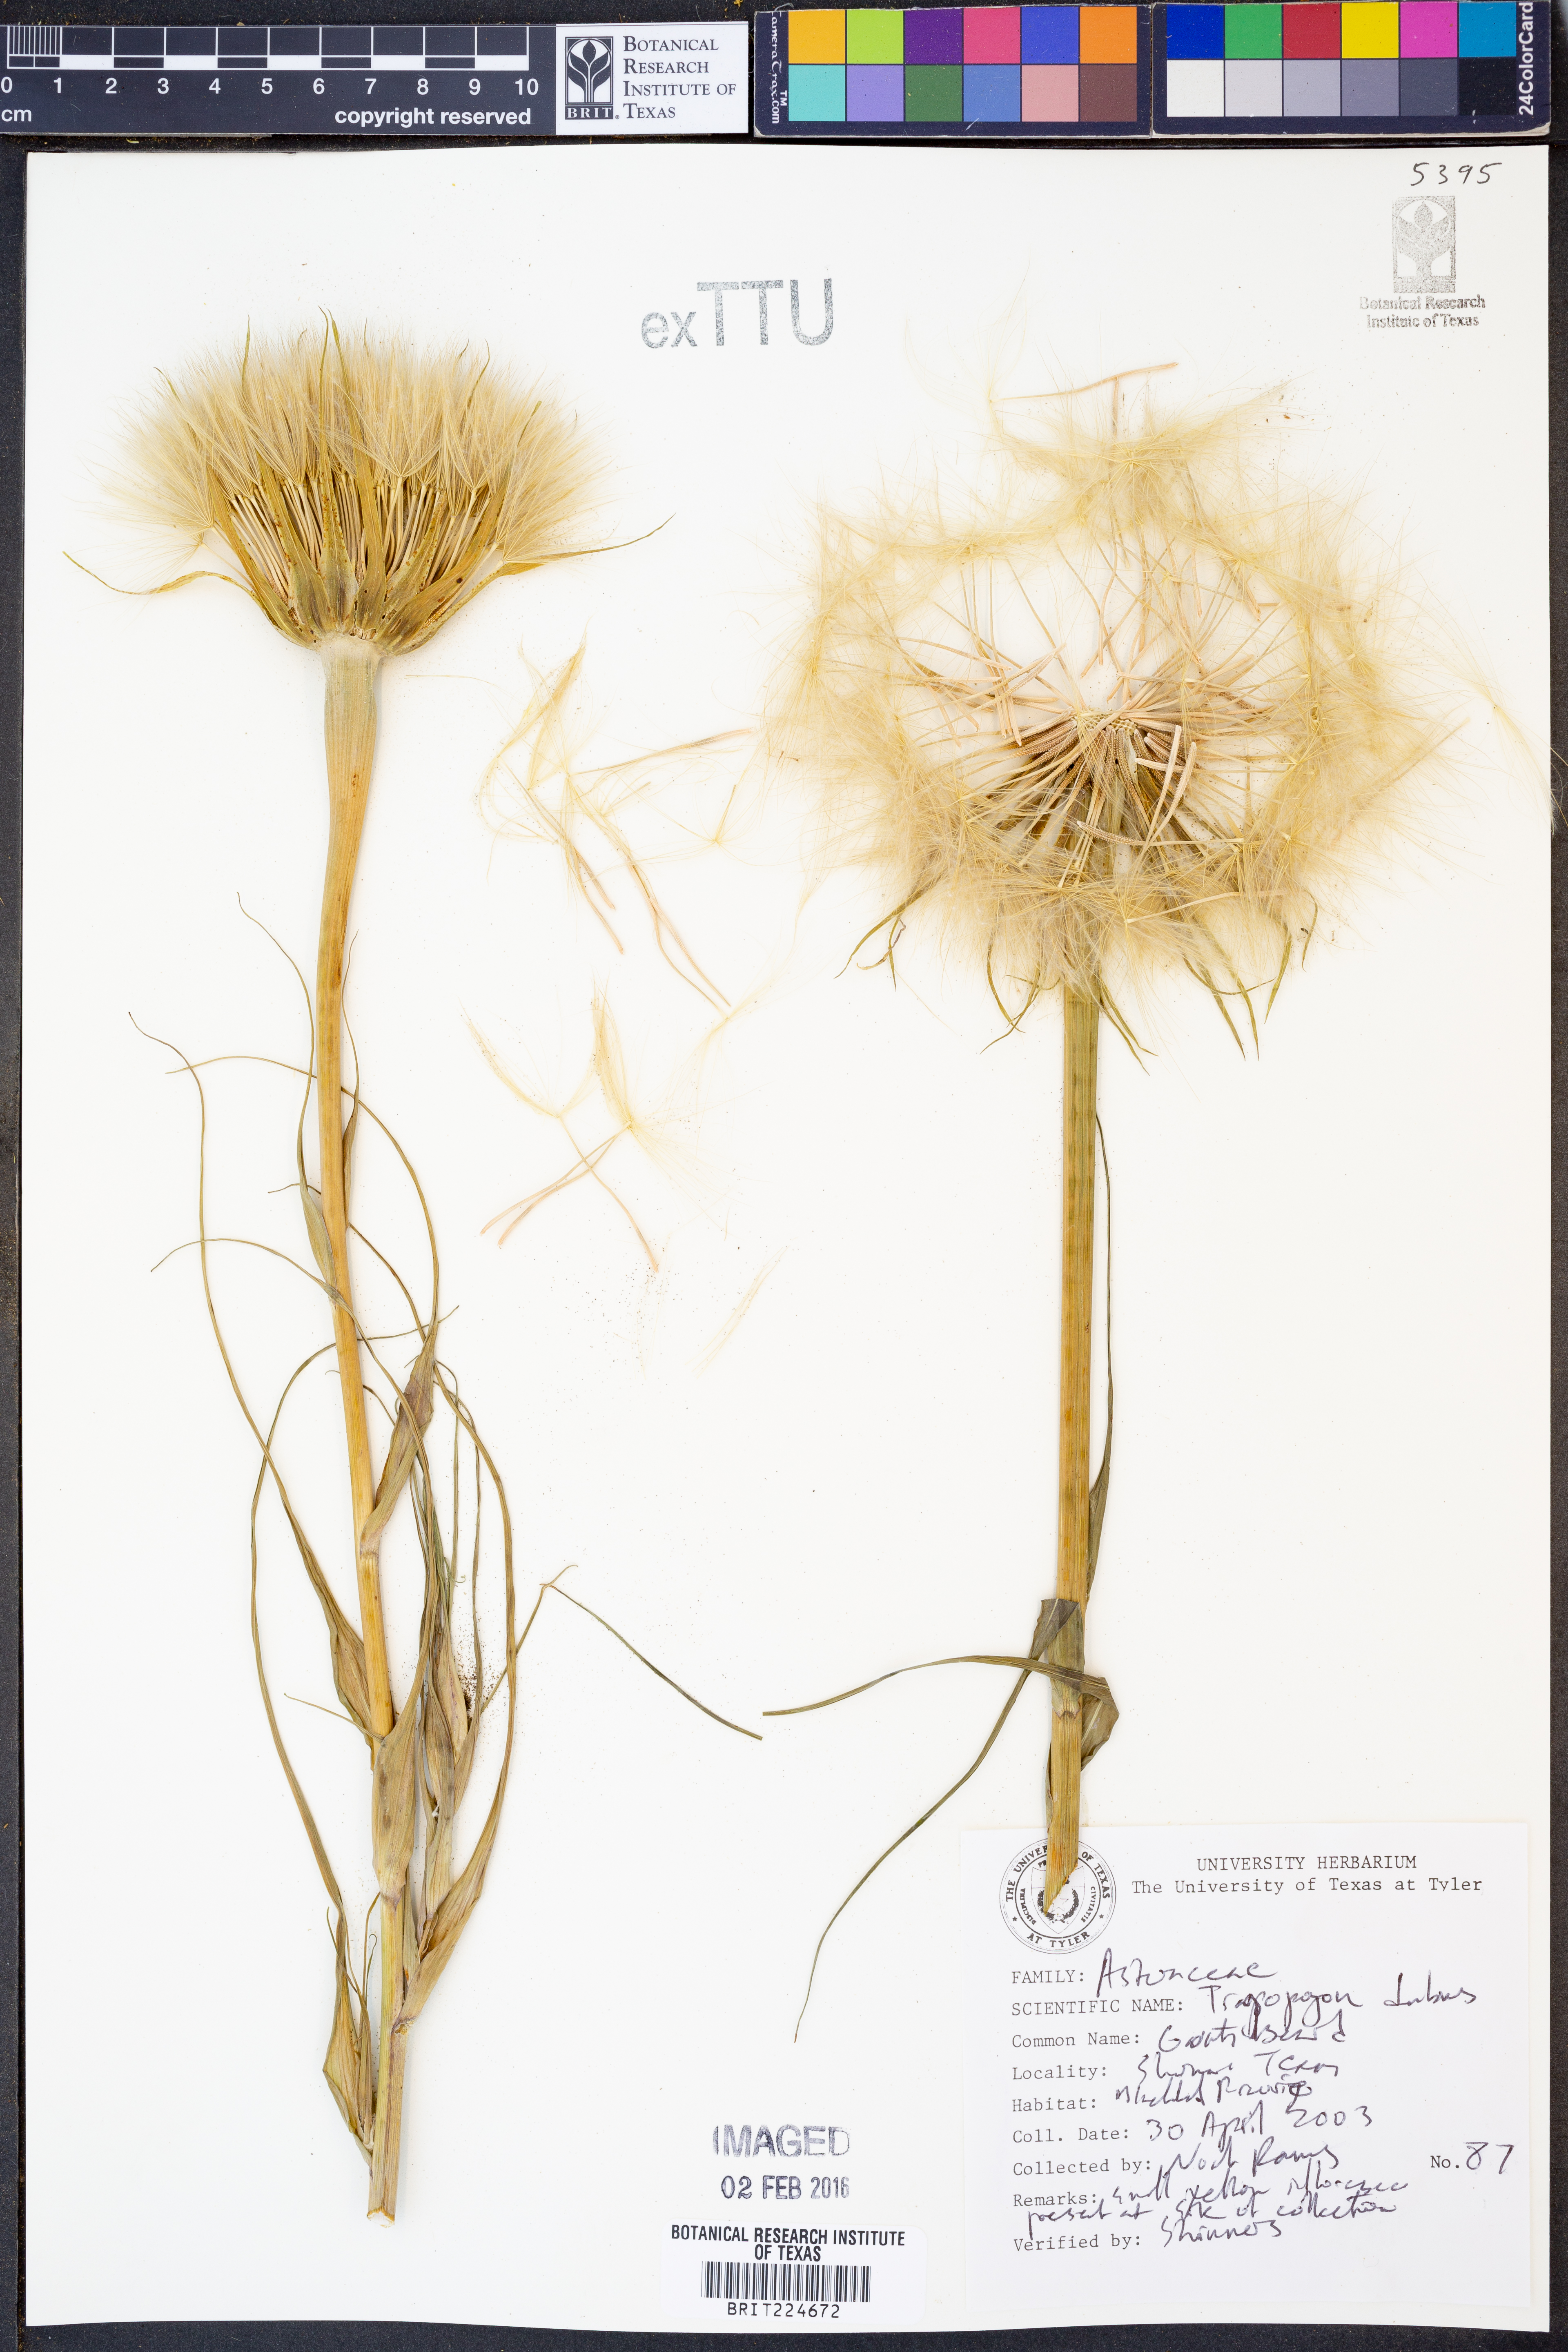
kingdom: Plantae
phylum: Tracheophyta
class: Magnoliopsida
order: Asterales
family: Asteraceae
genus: Tragopogon
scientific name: Tragopogon dubius
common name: Yellow salsify
